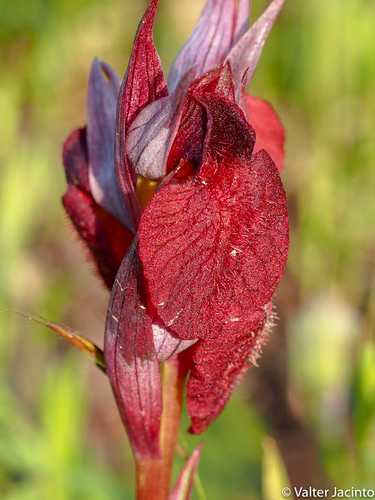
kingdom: Plantae
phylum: Tracheophyta
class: Liliopsida
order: Asparagales
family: Orchidaceae
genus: Serapias
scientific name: Serapias cordigera
